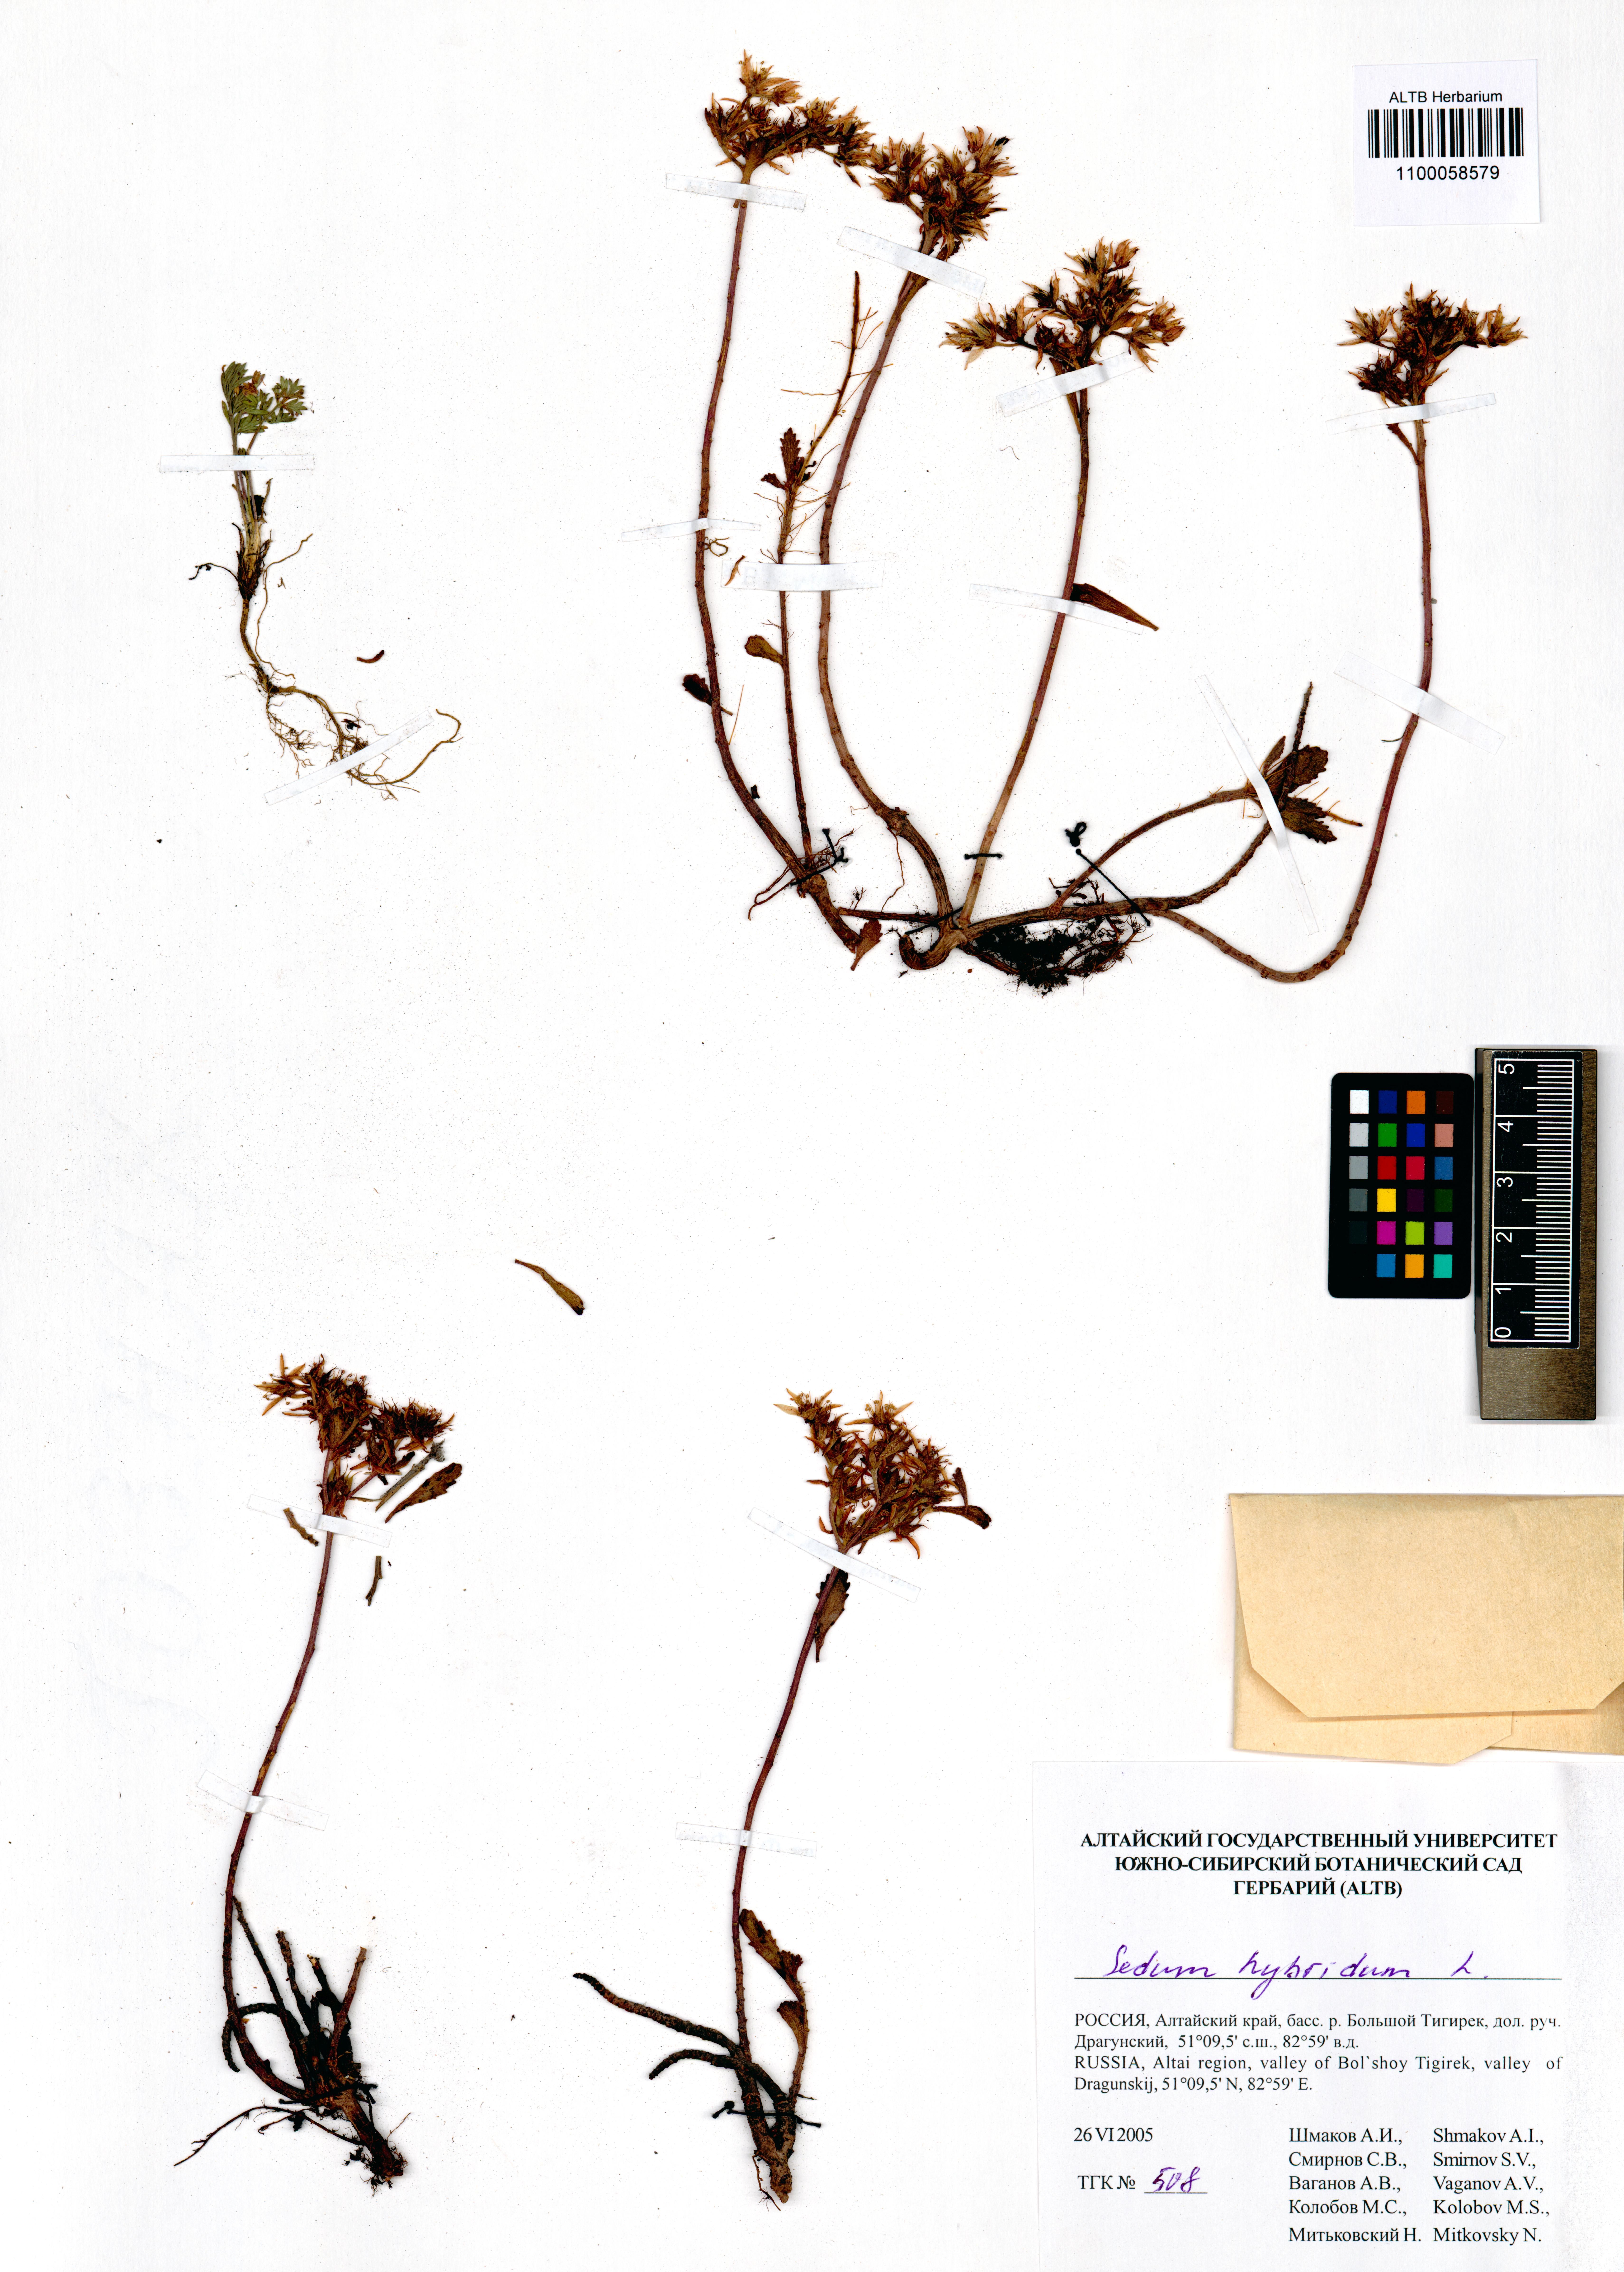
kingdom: Plantae
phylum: Tracheophyta
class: Magnoliopsida
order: Saxifragales
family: Crassulaceae
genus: Phedimus
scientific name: Phedimus hybridus
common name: Hybrid stonecrop
